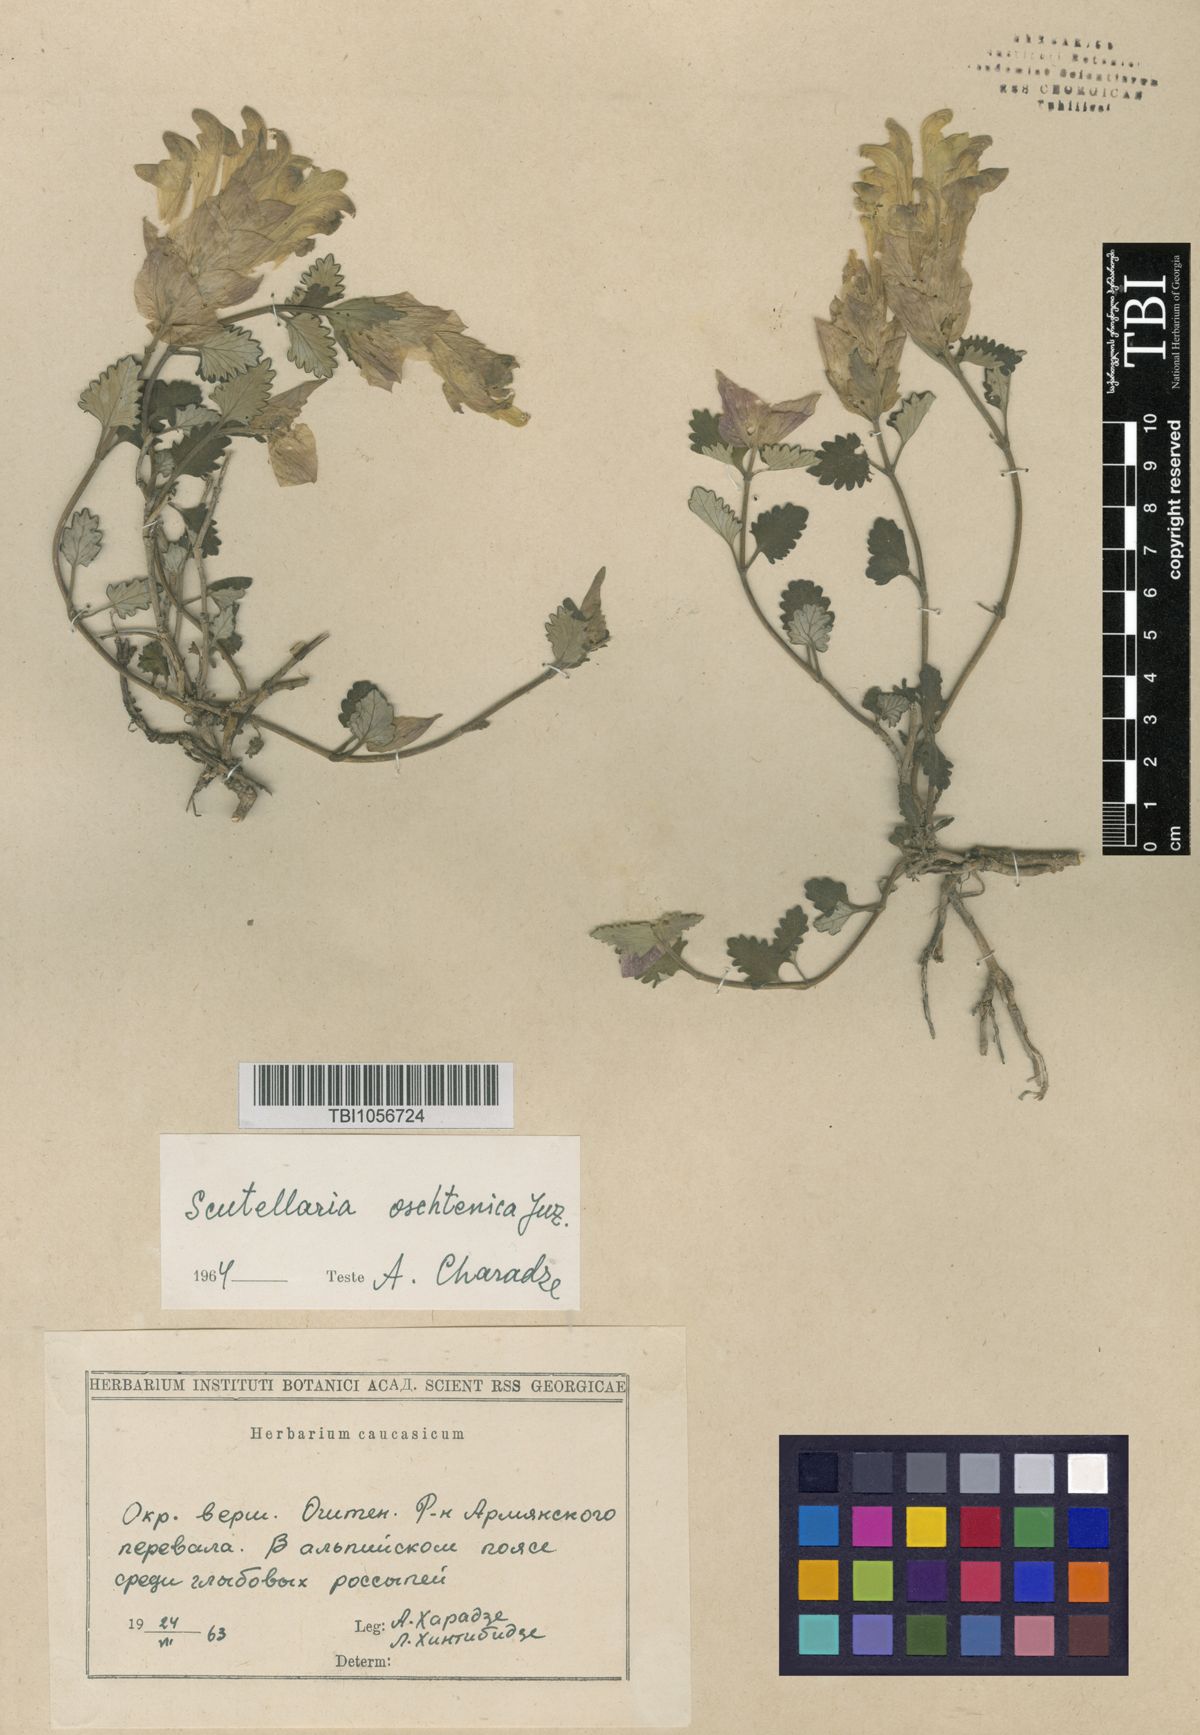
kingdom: Plantae
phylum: Tracheophyta
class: Magnoliopsida
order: Lamiales
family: Lamiaceae
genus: Scutellaria
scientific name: Scutellaria oschtenica
